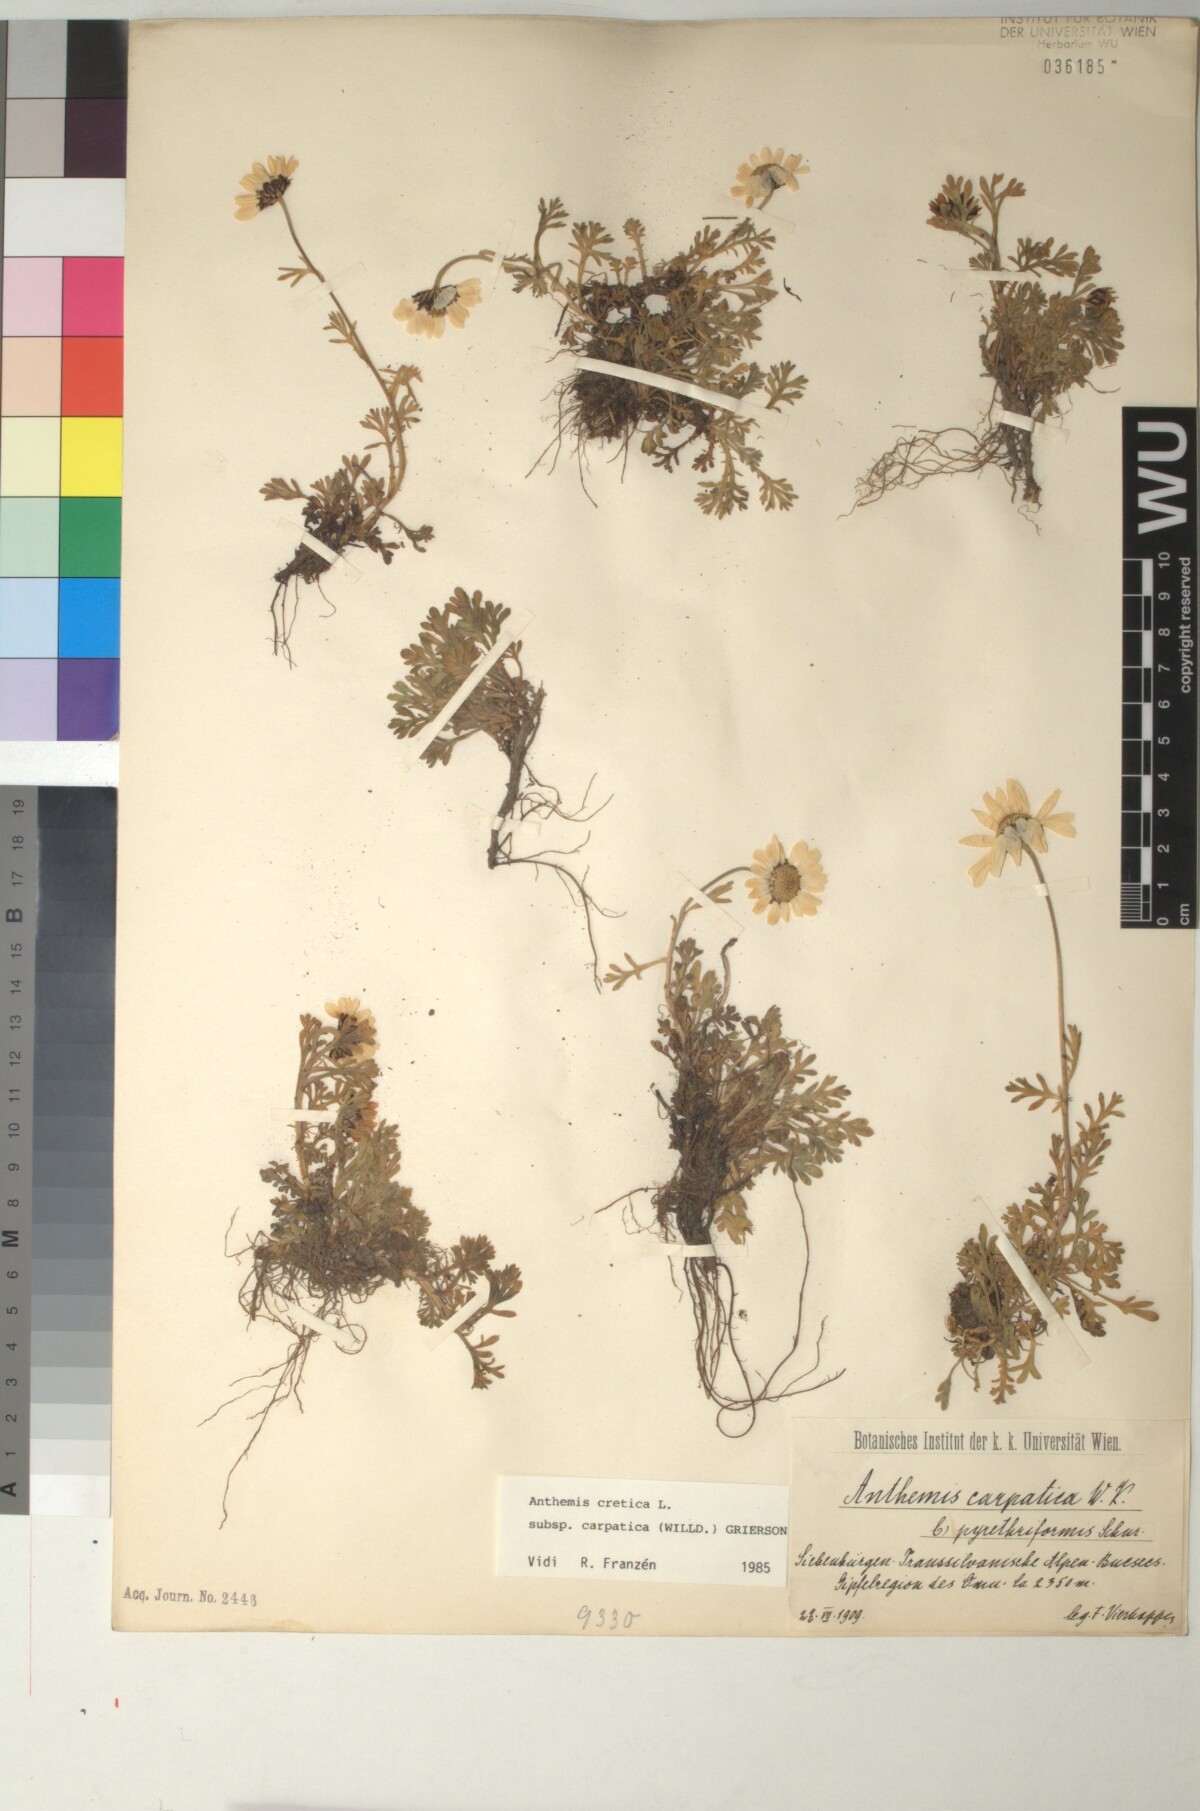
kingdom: Plantae
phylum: Tracheophyta
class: Magnoliopsida
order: Asterales
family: Asteraceae
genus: Anthemis
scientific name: Anthemis cretica
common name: Mountain dog-daisy
